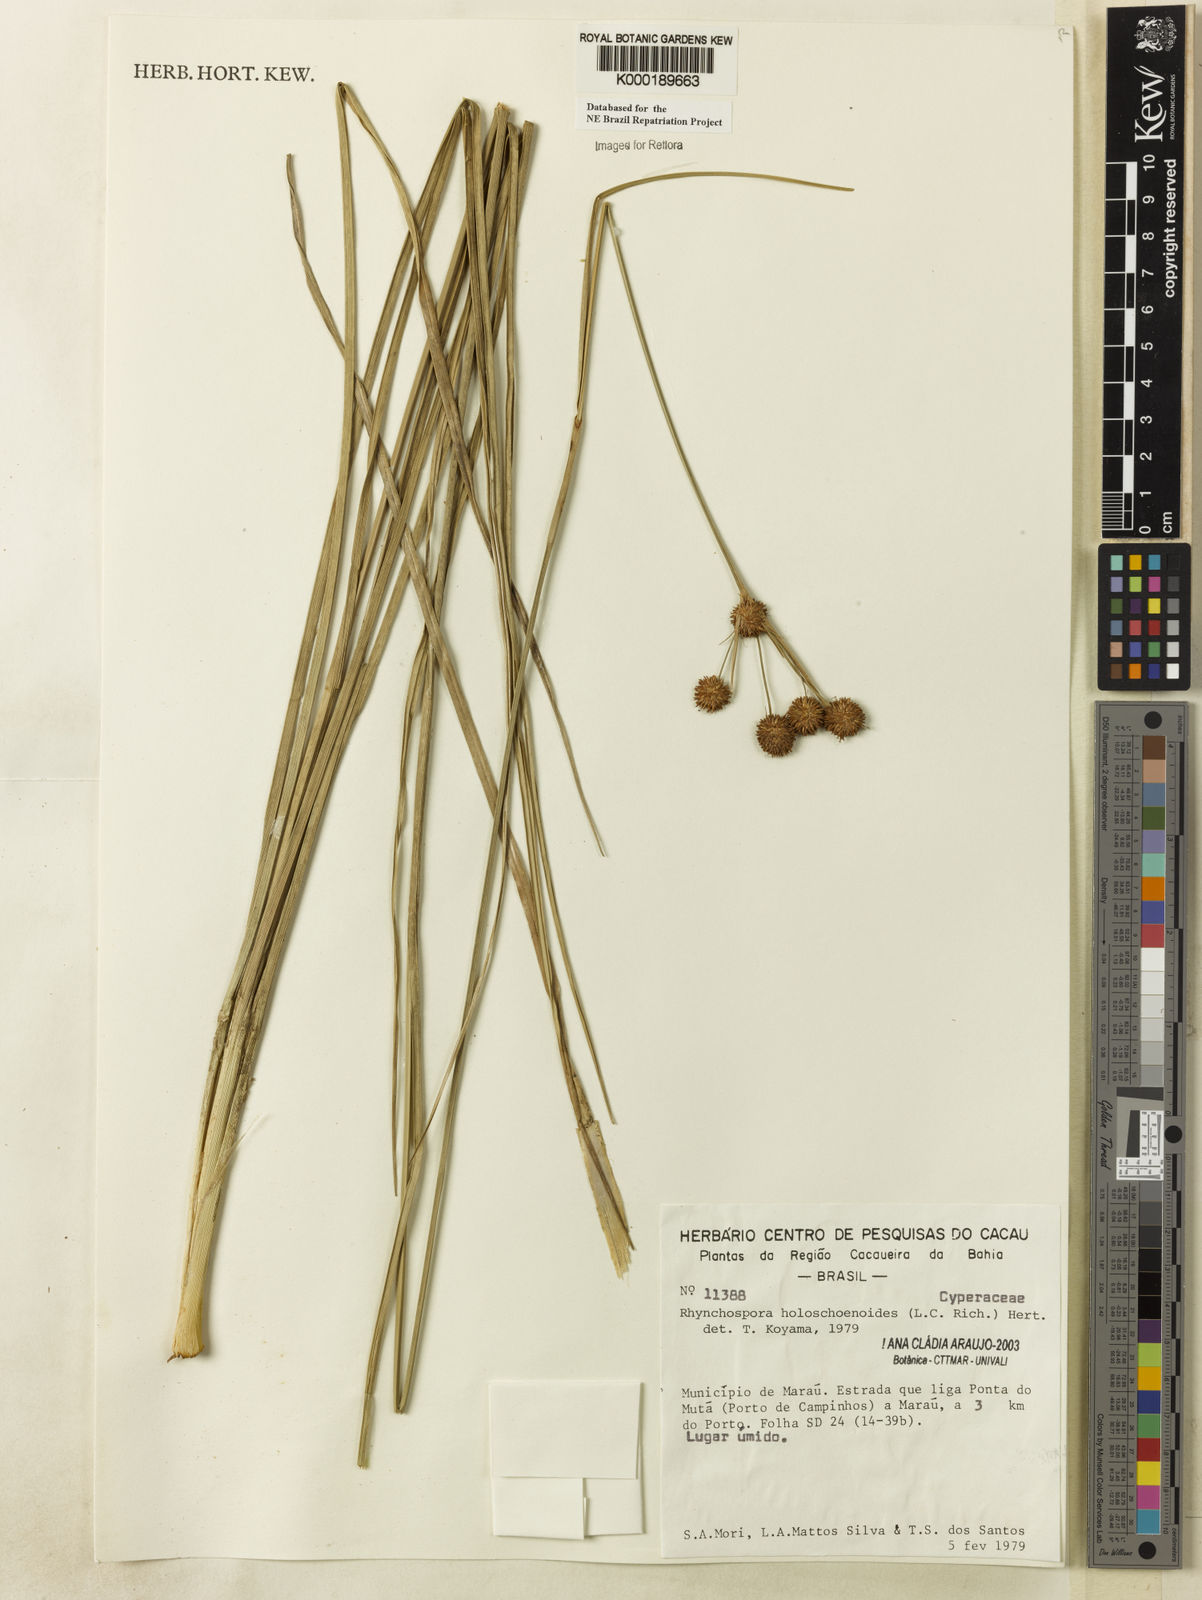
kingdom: Plantae
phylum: Tracheophyta
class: Liliopsida
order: Poales
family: Cyperaceae
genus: Rhynchospora
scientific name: Rhynchospora holoschoenoides
